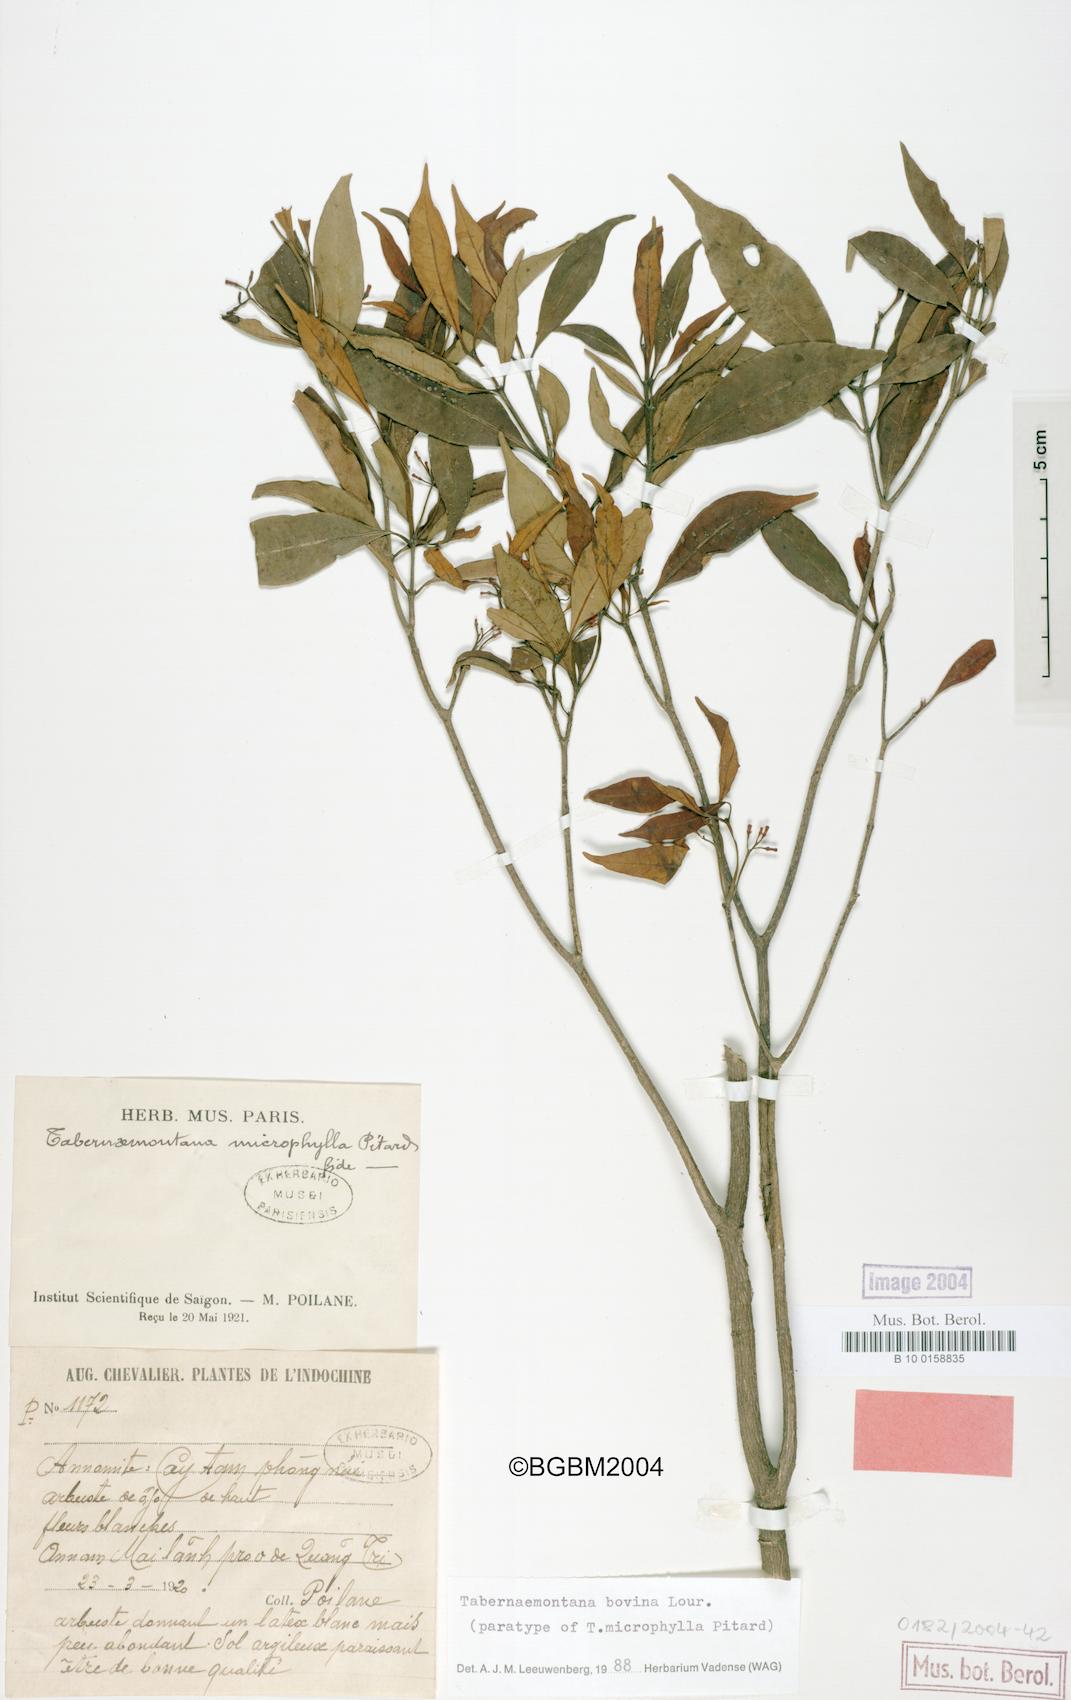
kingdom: Plantae
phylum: Tracheophyta
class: Magnoliopsida
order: Gentianales
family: Apocynaceae
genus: Tabernaemontana
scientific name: Tabernaemontana bovina
